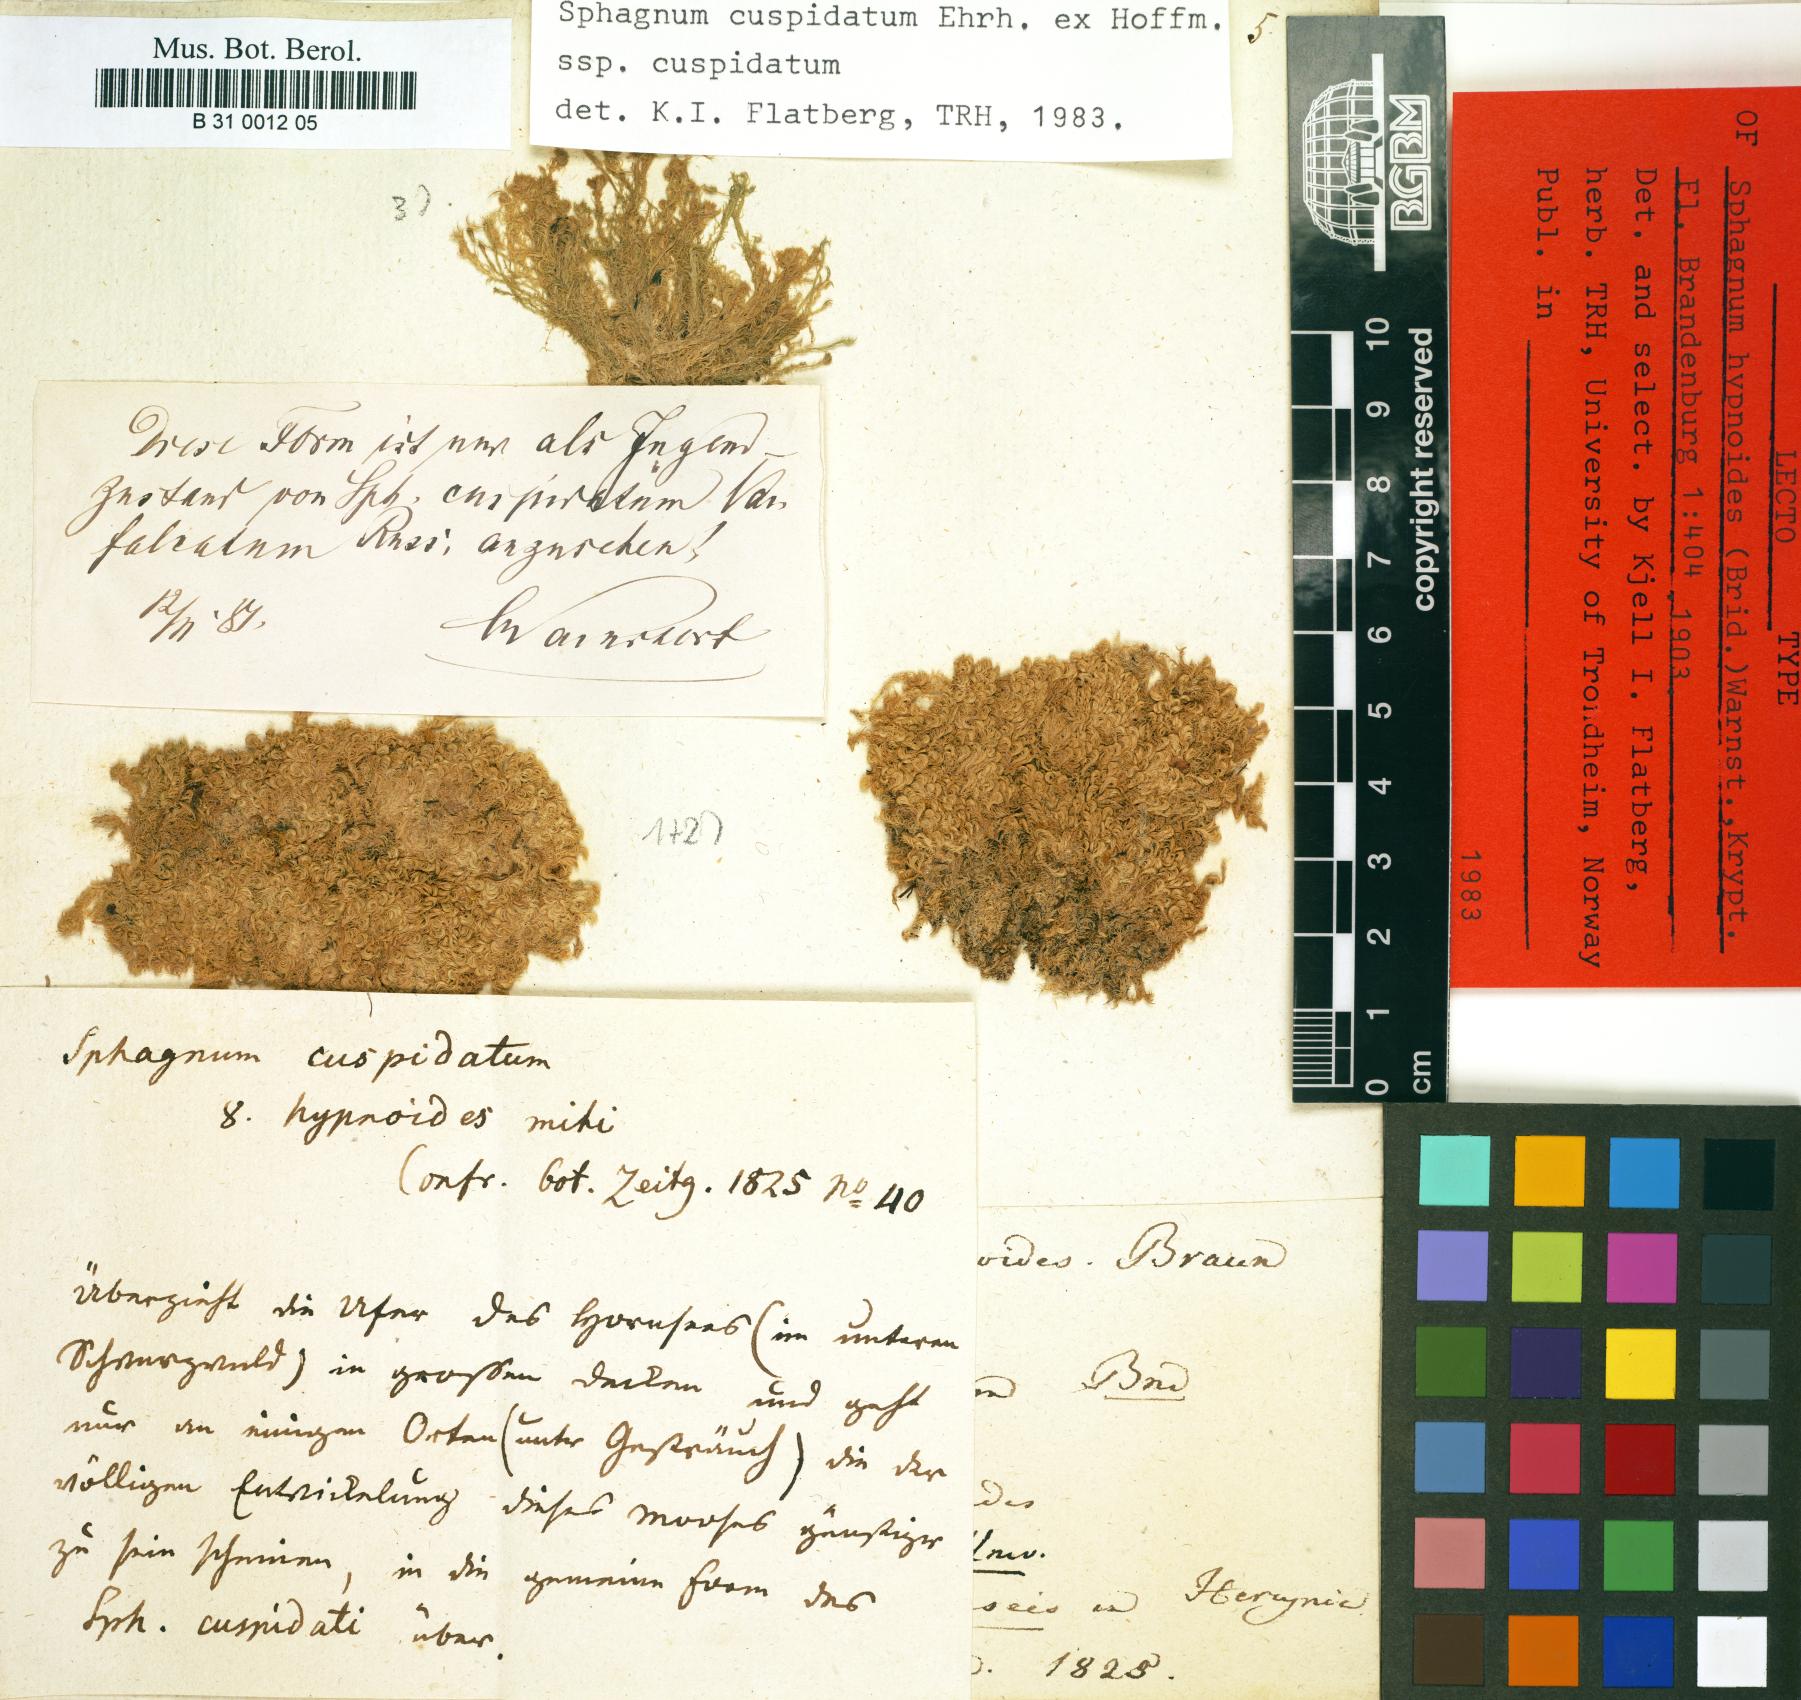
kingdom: Plantae
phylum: Bryophyta
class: Sphagnopsida
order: Sphagnales
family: Sphagnaceae
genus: Sphagnum
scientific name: Sphagnum cuspidatum
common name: Feathery peat moss
